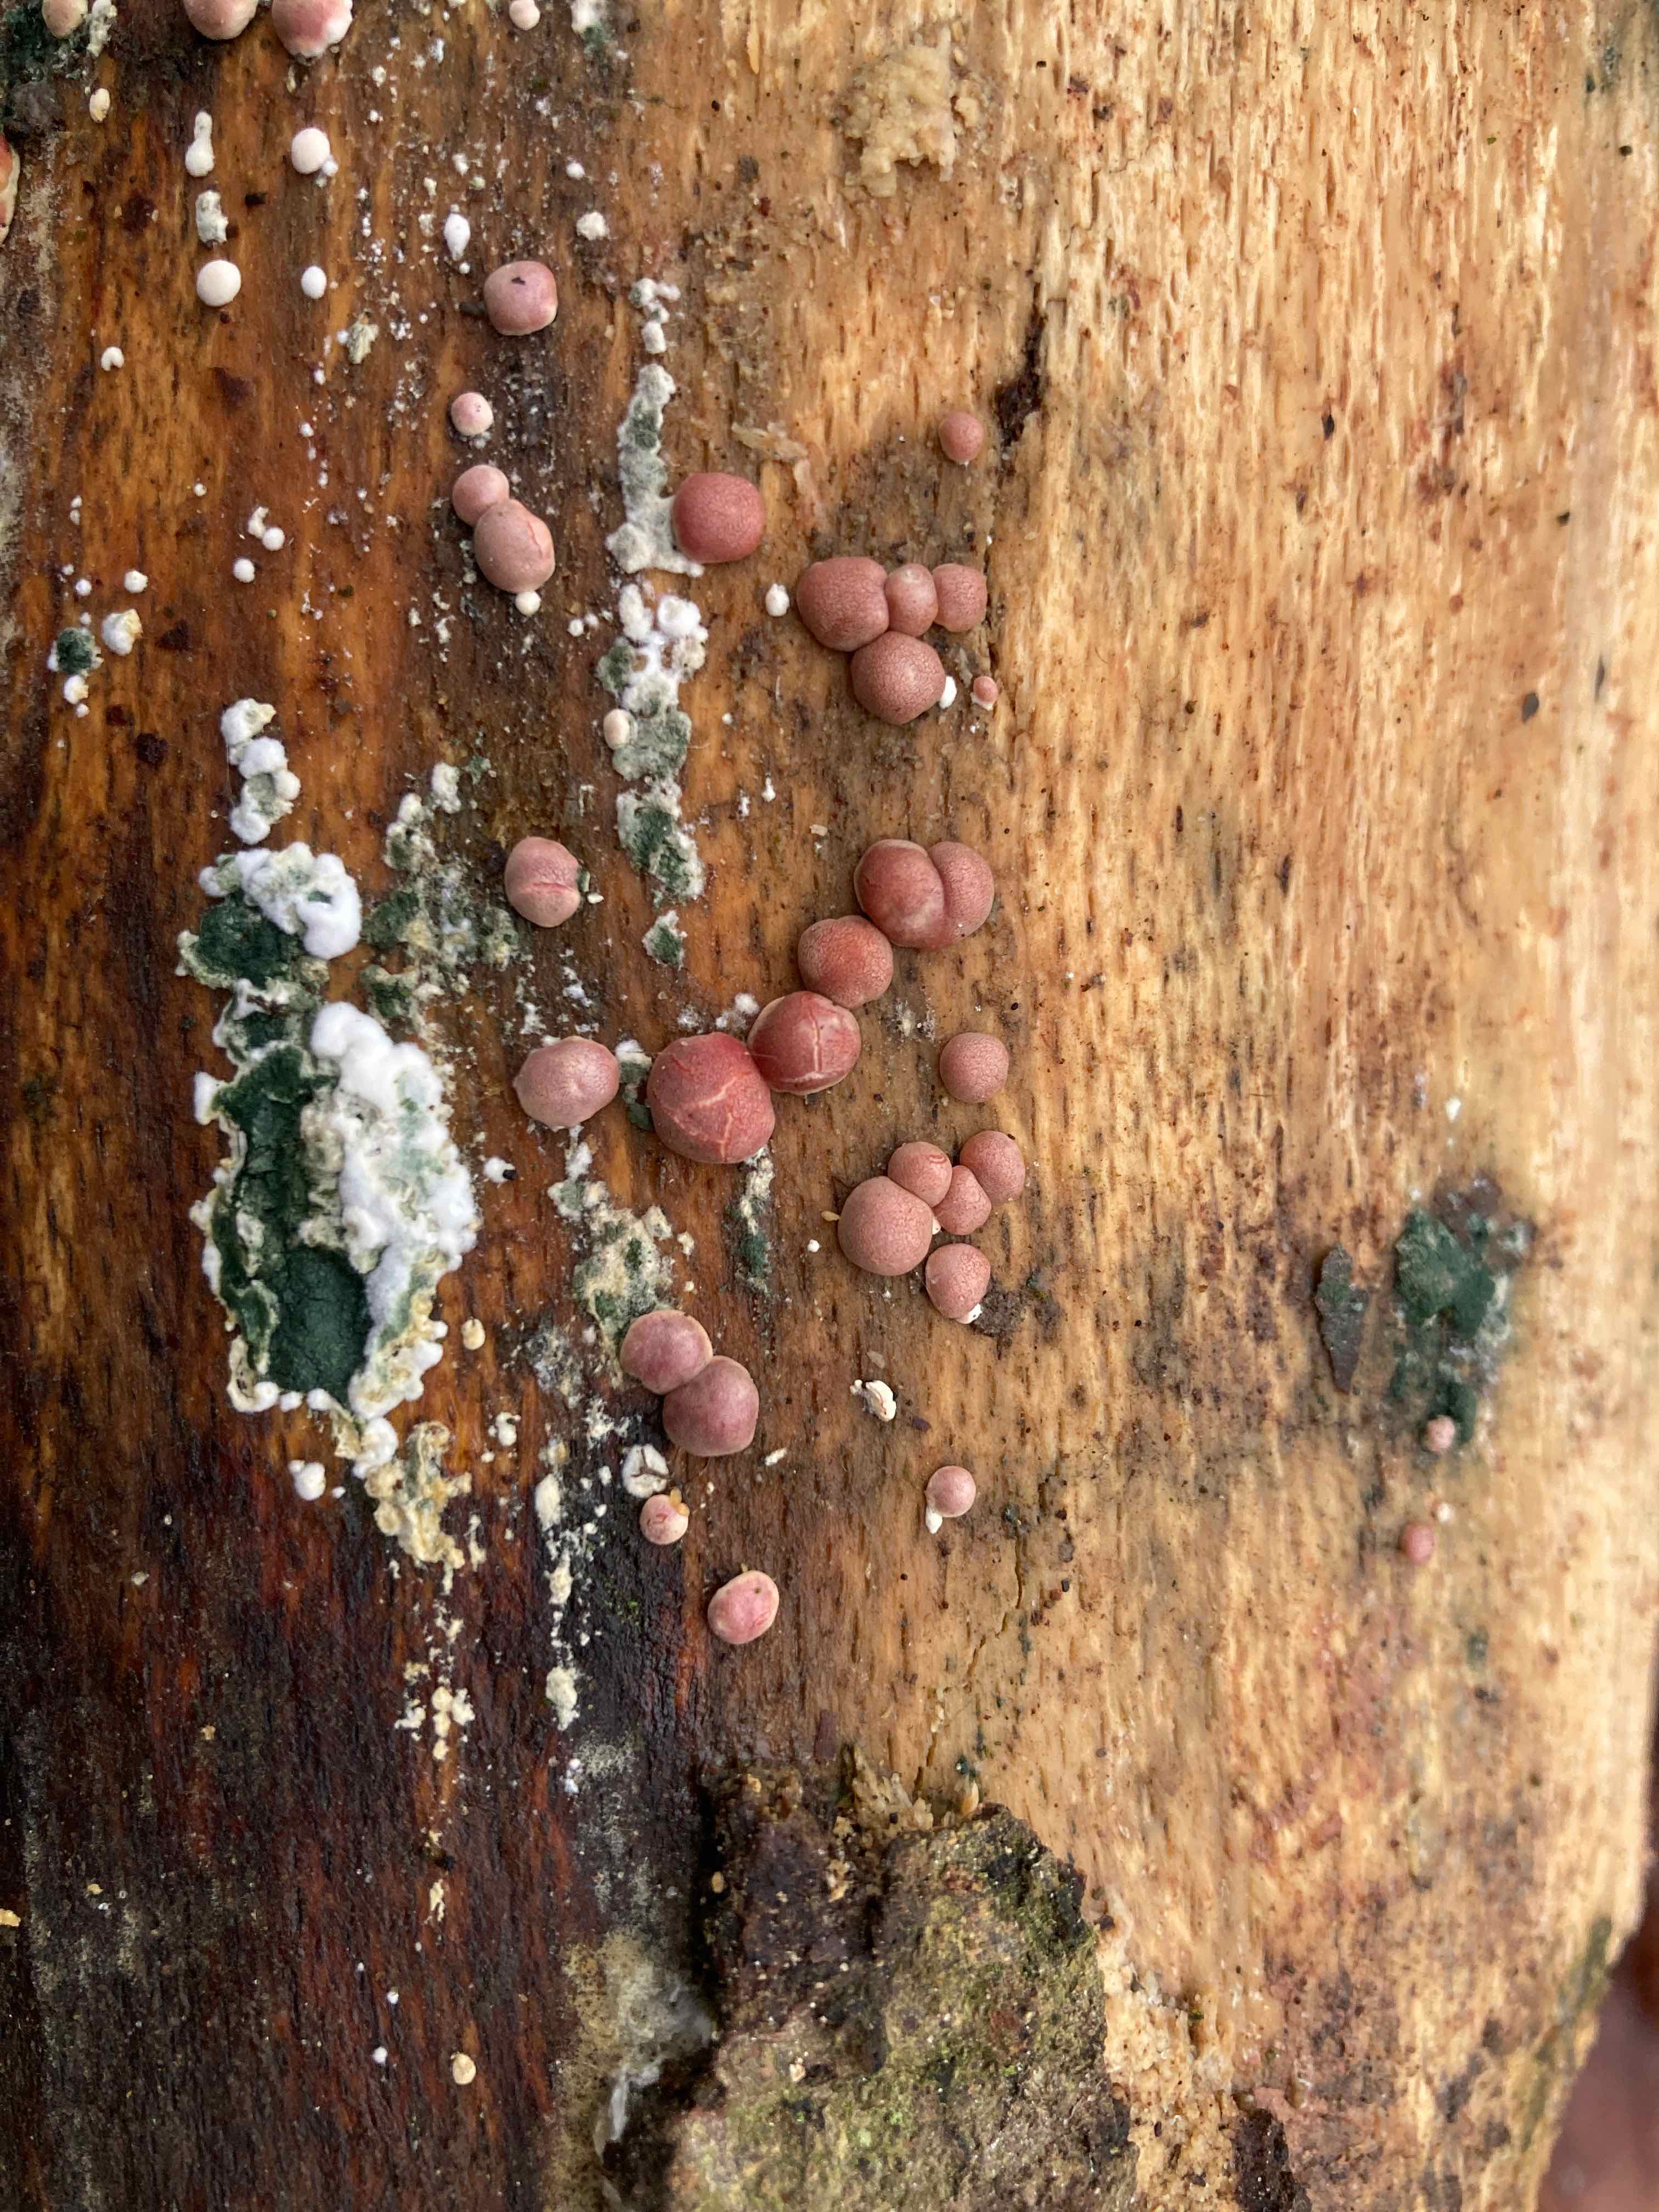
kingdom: Fungi
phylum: Ascomycota
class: Sordariomycetes
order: Hypocreales
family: Hypocreaceae
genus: Trichoderma
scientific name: Trichoderma europaeum
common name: rosabrun kødkerne
